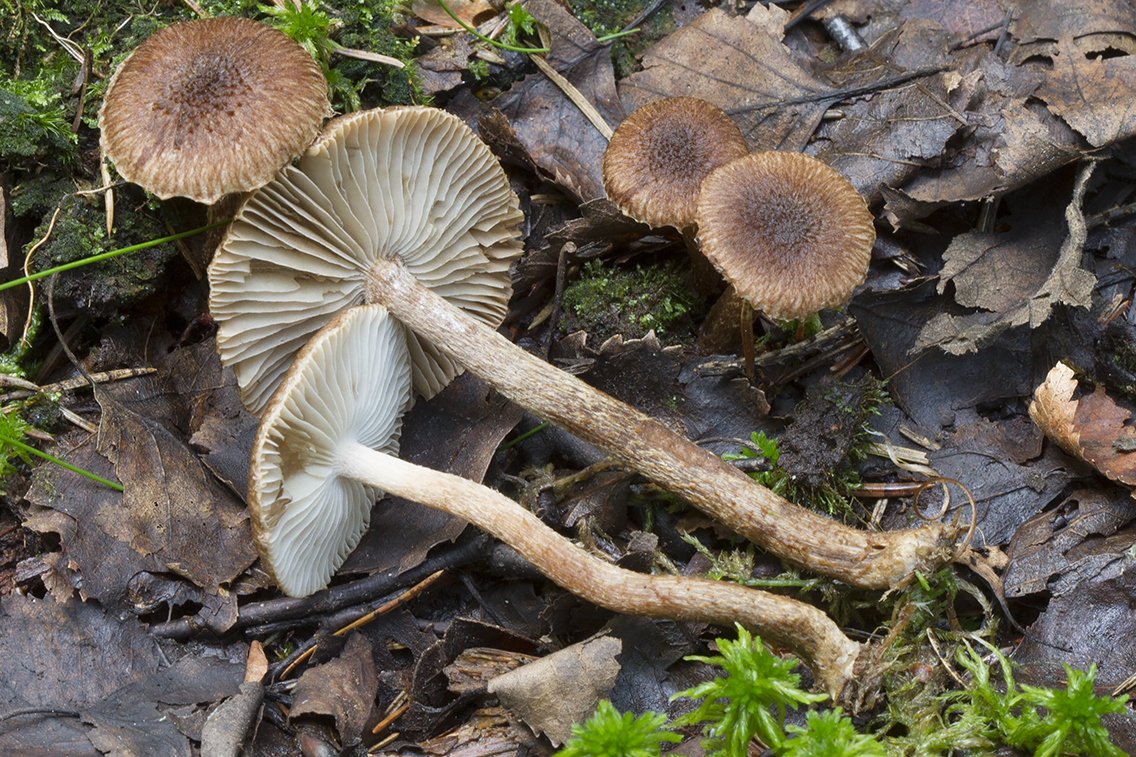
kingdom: Fungi
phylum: Basidiomycota
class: Agaricomycetes
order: Agaricales
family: Inocybaceae
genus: Inocybe
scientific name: Inocybe
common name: trævlhat
